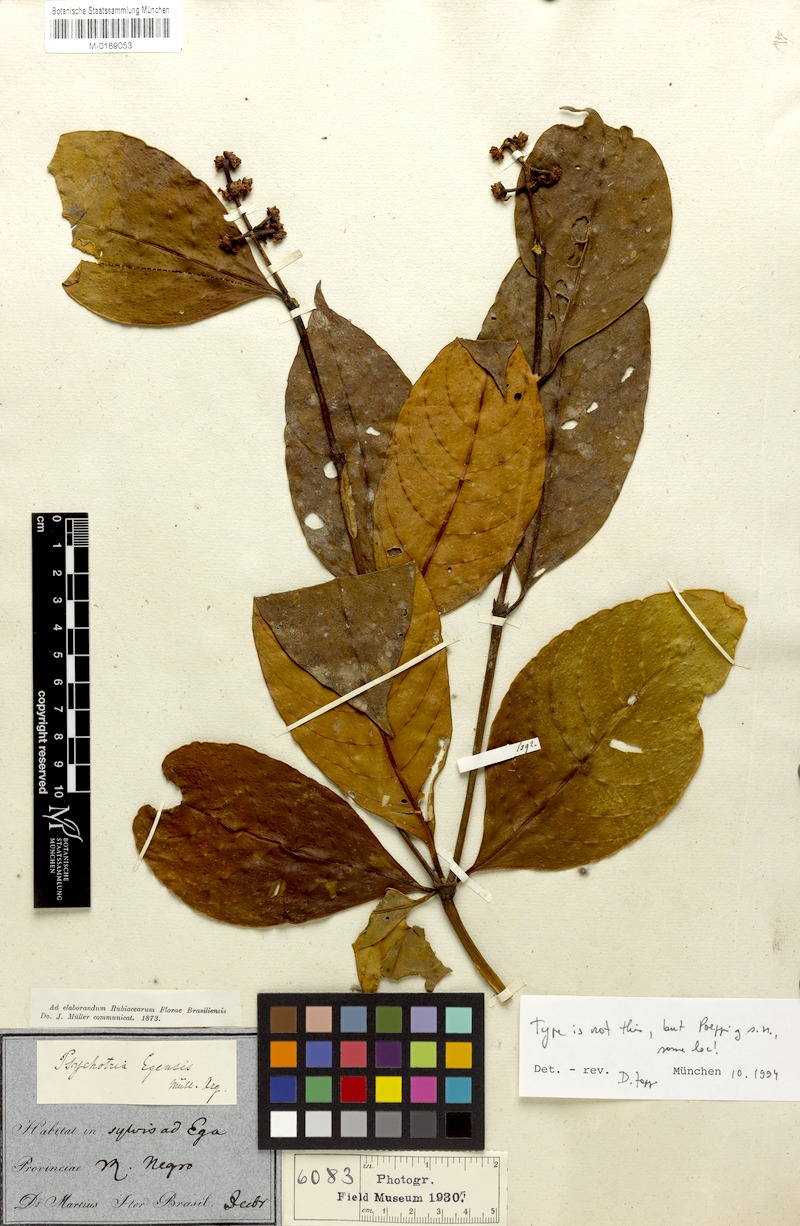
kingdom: Plantae
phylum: Tracheophyta
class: Magnoliopsida
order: Gentianales
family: Rubiaceae
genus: Palicourea
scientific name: Palicourea egensis
